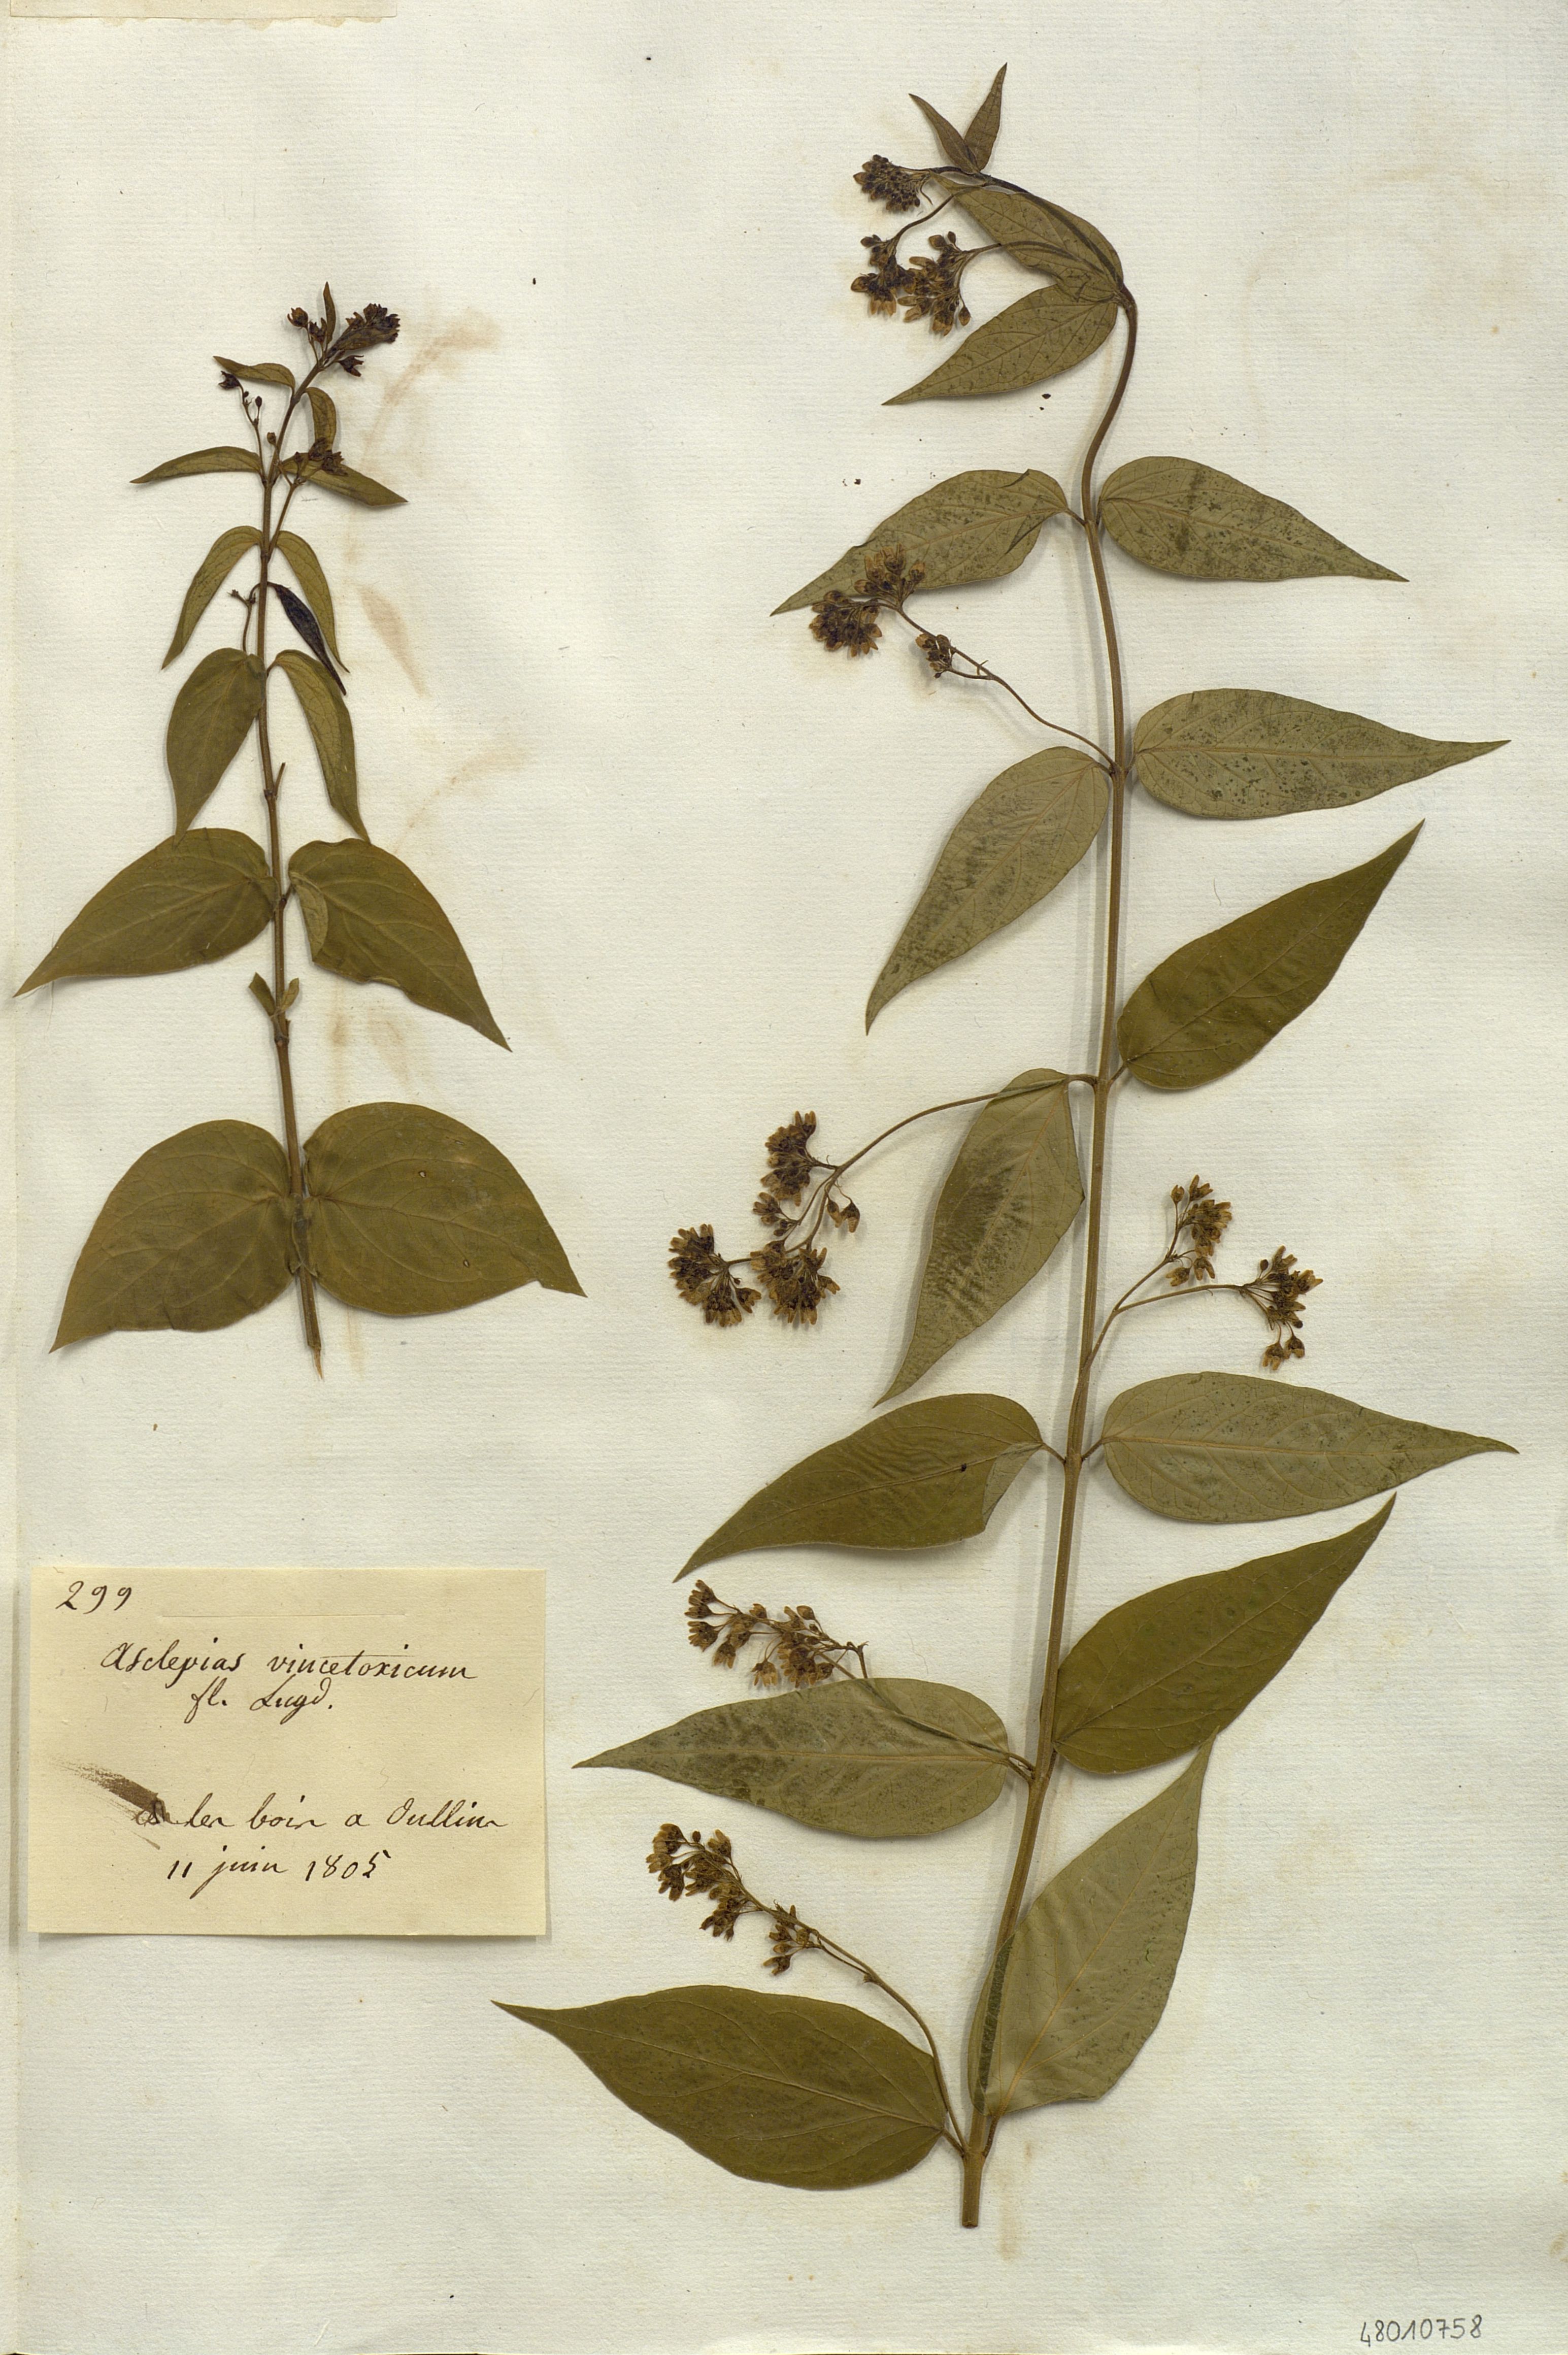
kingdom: Plantae
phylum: Tracheophyta
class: Magnoliopsida
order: Gentianales
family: Apocynaceae
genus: Vincetoxicum
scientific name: Vincetoxicum hirundinaria
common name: White swallowwort
